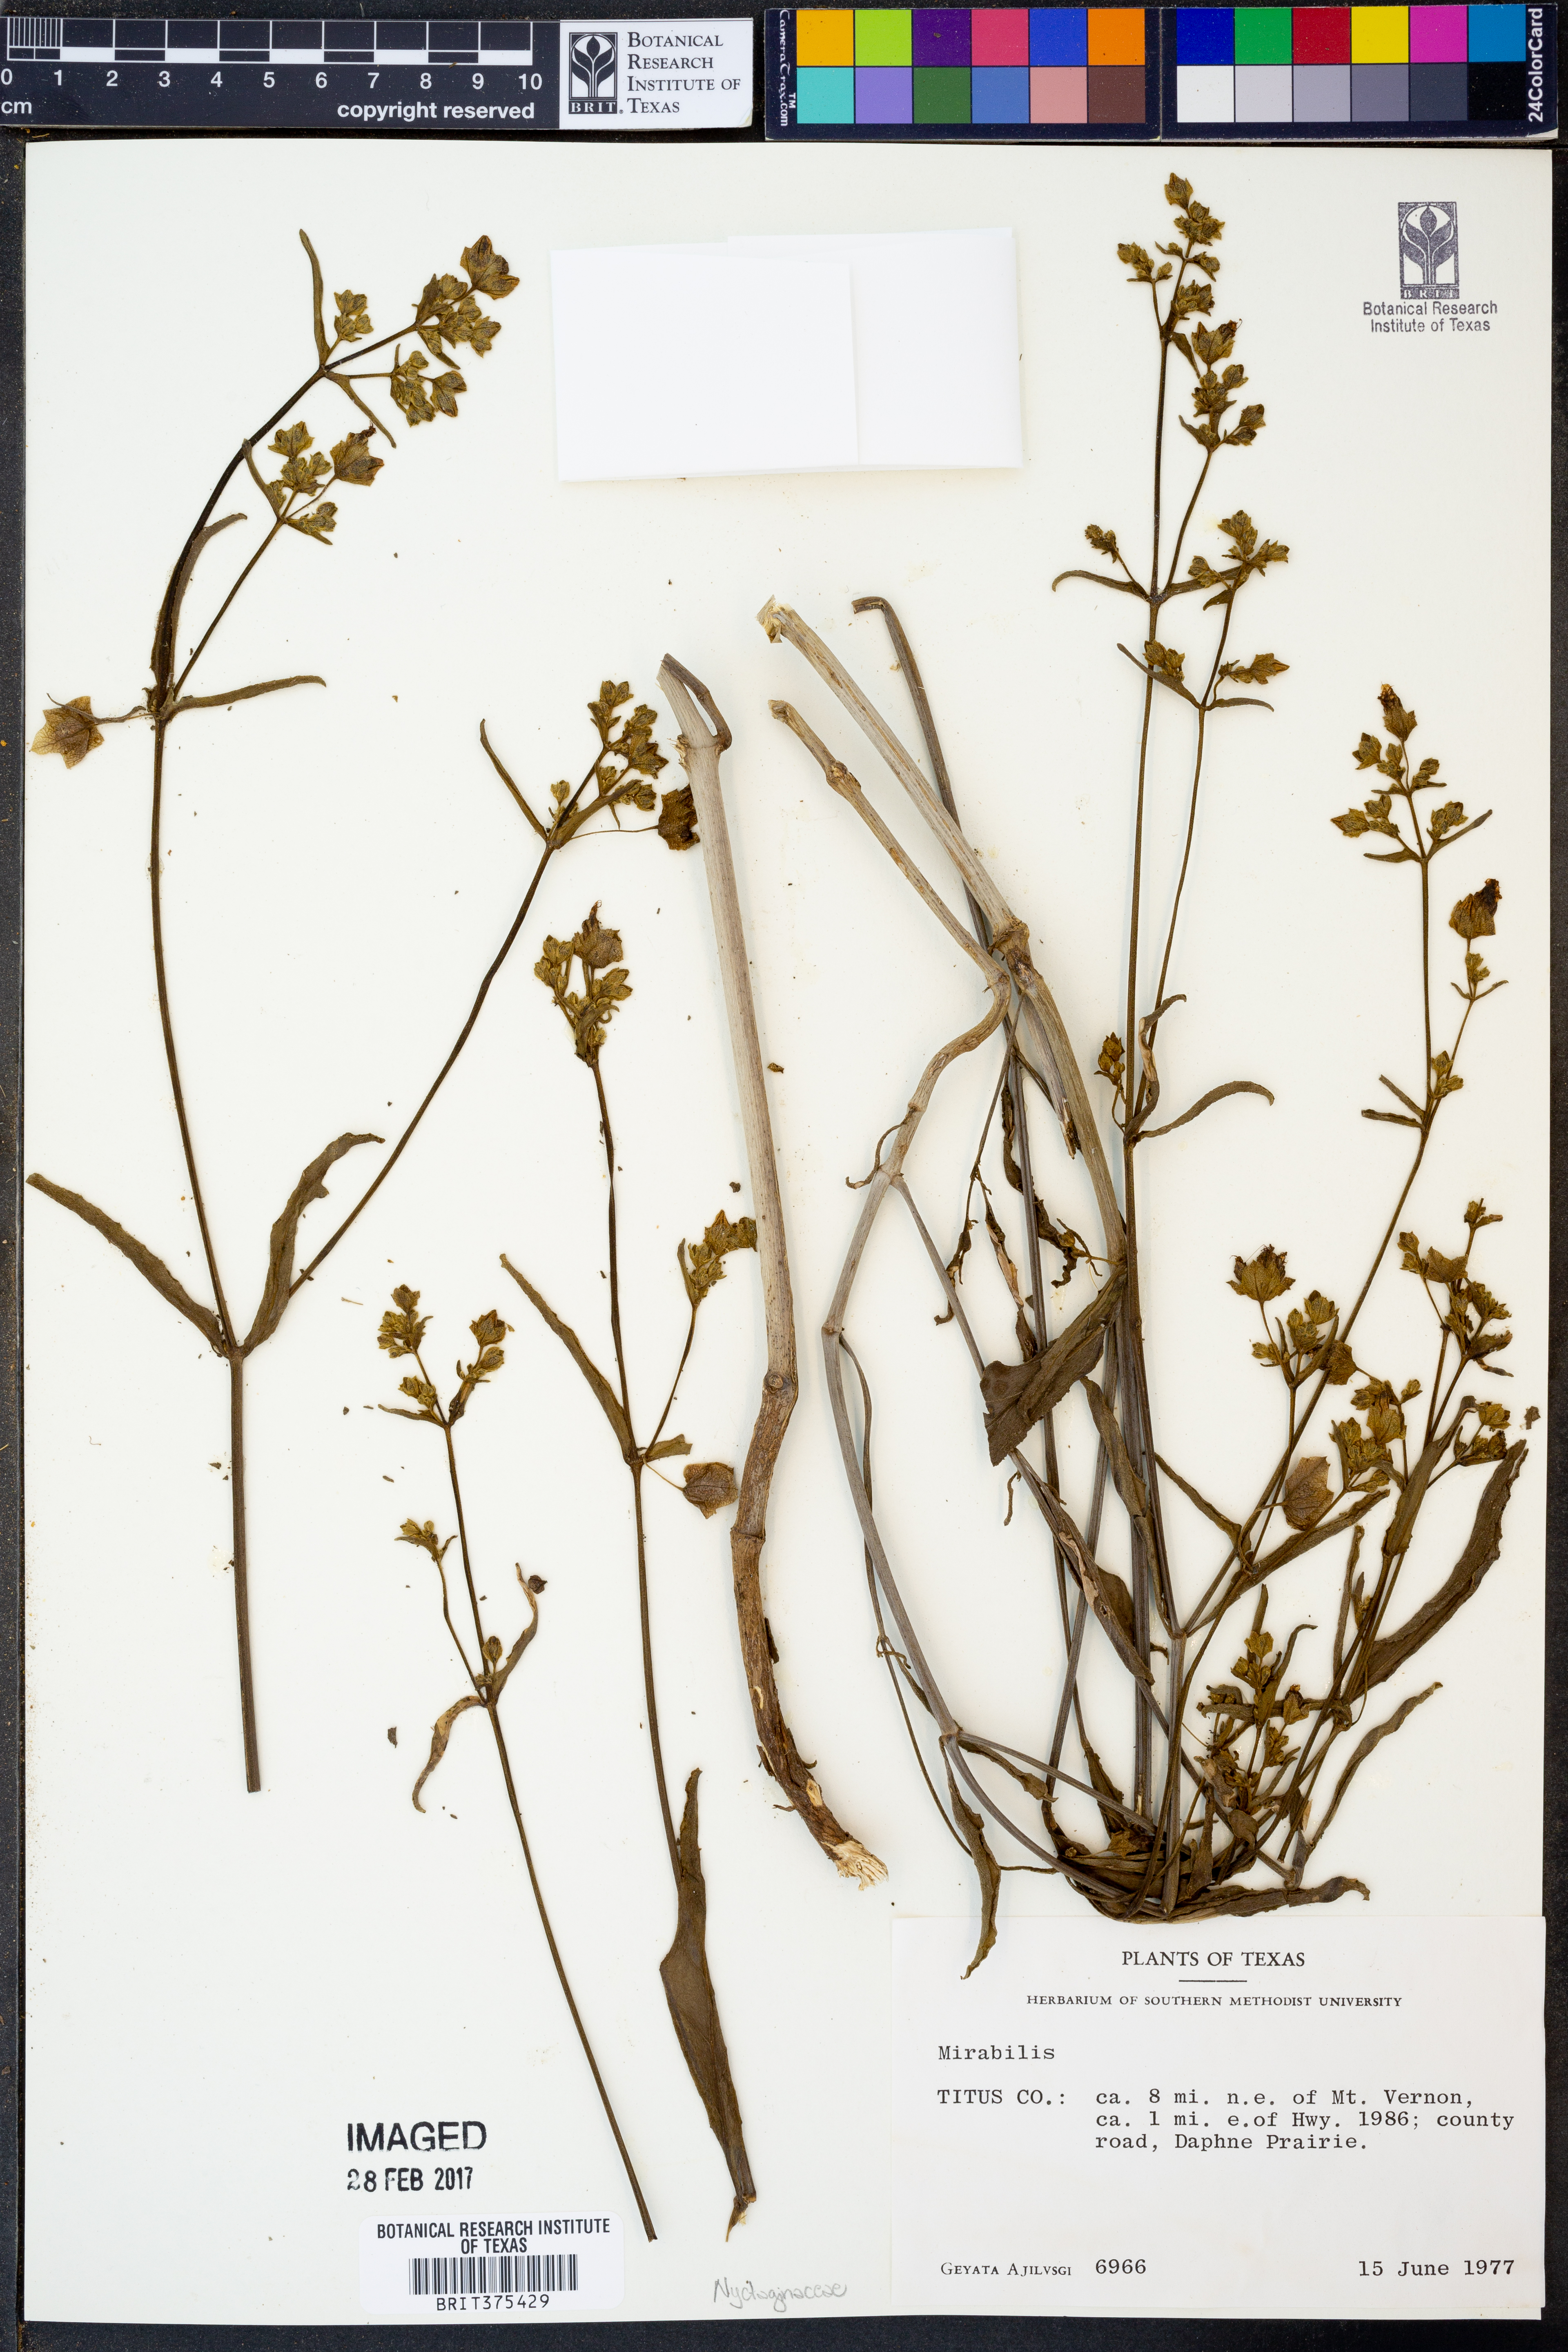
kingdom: Plantae
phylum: Tracheophyta
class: Magnoliopsida
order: Caryophyllales
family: Nyctaginaceae
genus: Mirabilis
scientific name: Mirabilis
